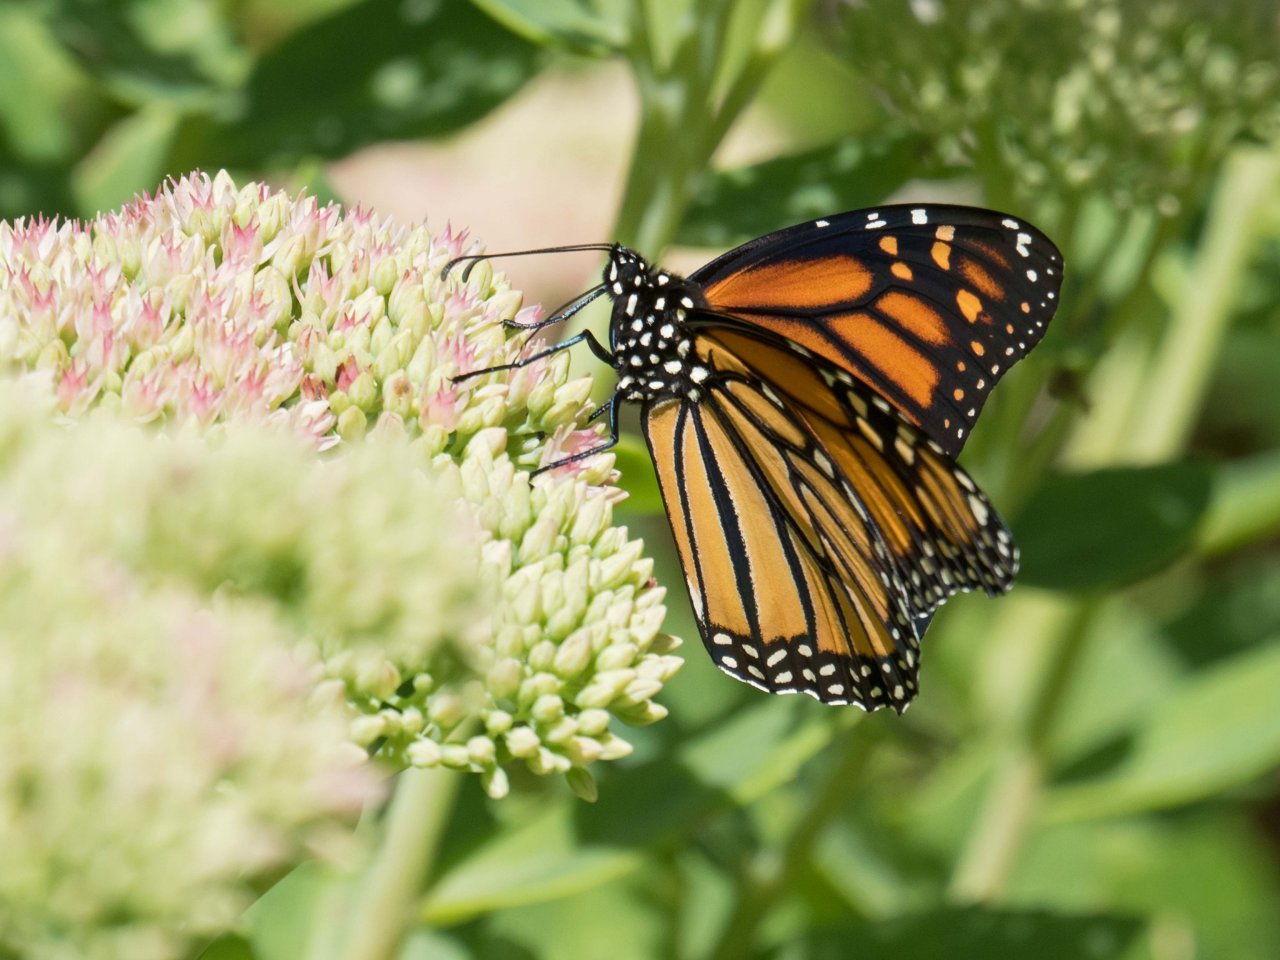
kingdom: Animalia
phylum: Arthropoda
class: Insecta
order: Lepidoptera
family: Nymphalidae
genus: Danaus
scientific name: Danaus plexippus
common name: Monarch
